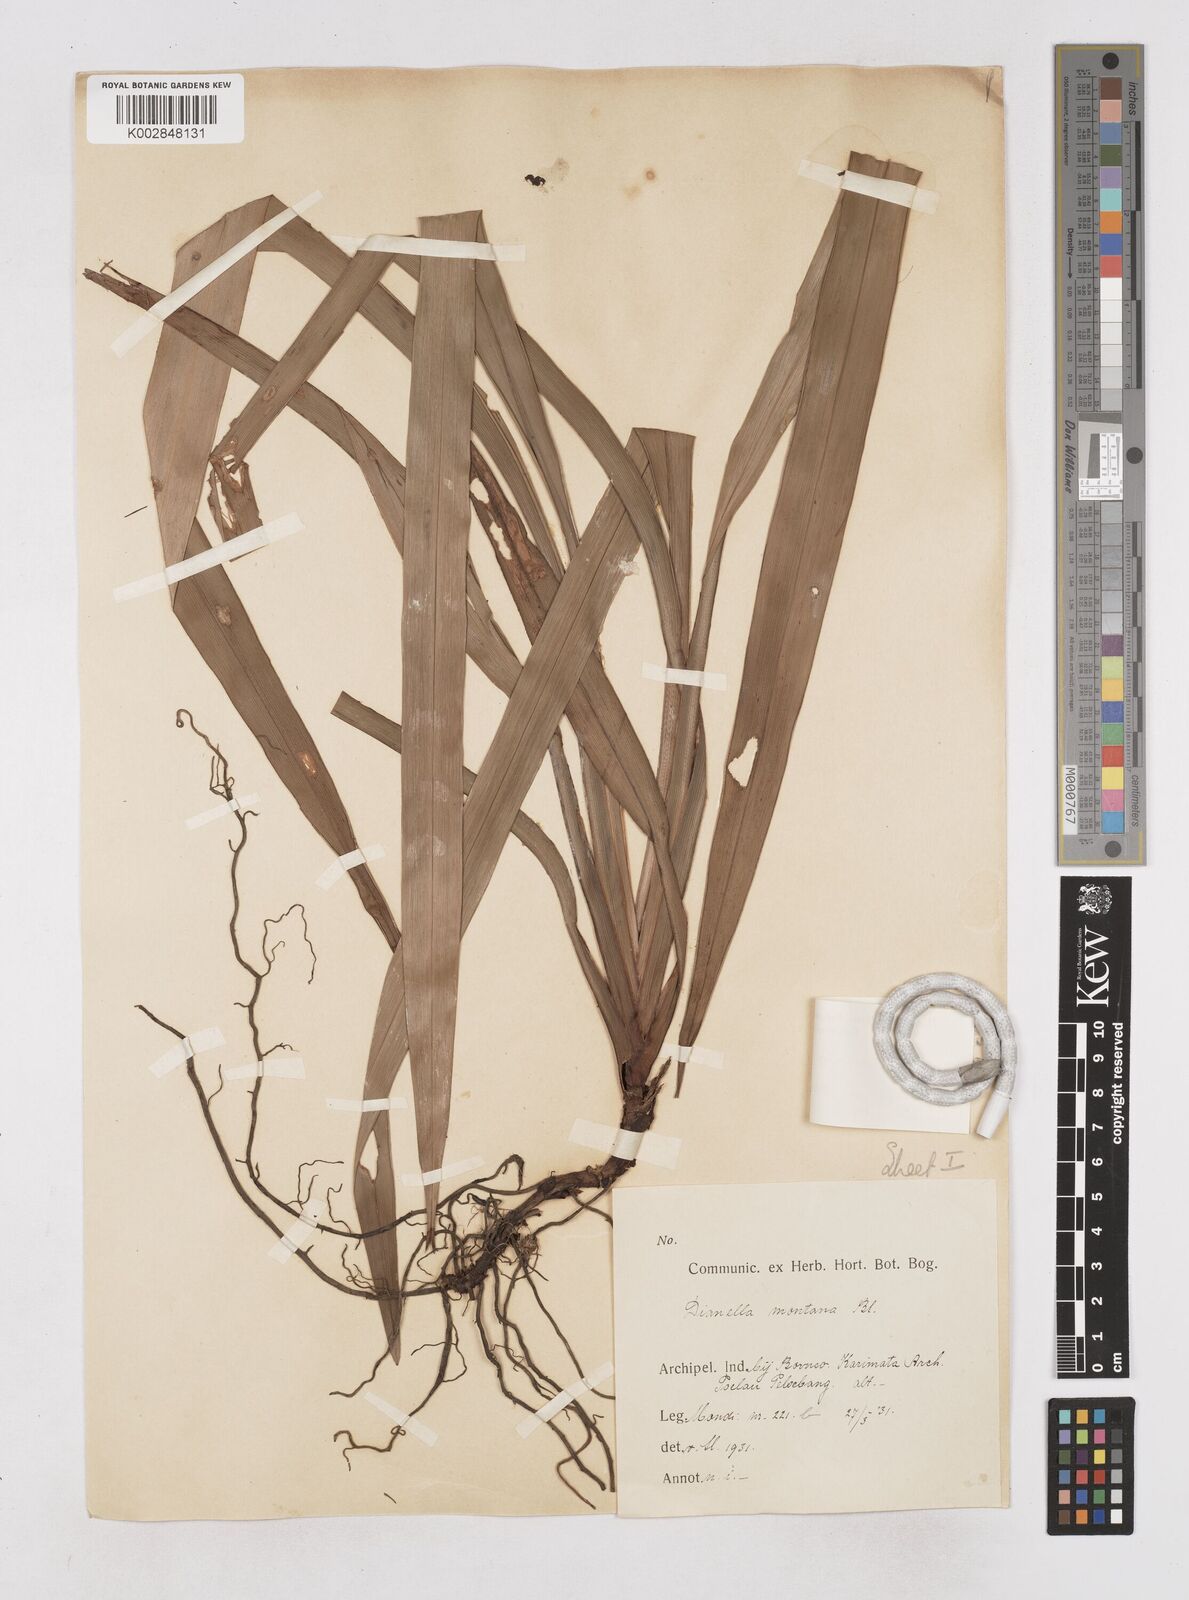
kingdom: Plantae
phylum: Tracheophyta
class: Liliopsida
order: Asparagales
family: Asphodelaceae
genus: Dianella
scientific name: Dianella ensifolia
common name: New zealand lilyplant
